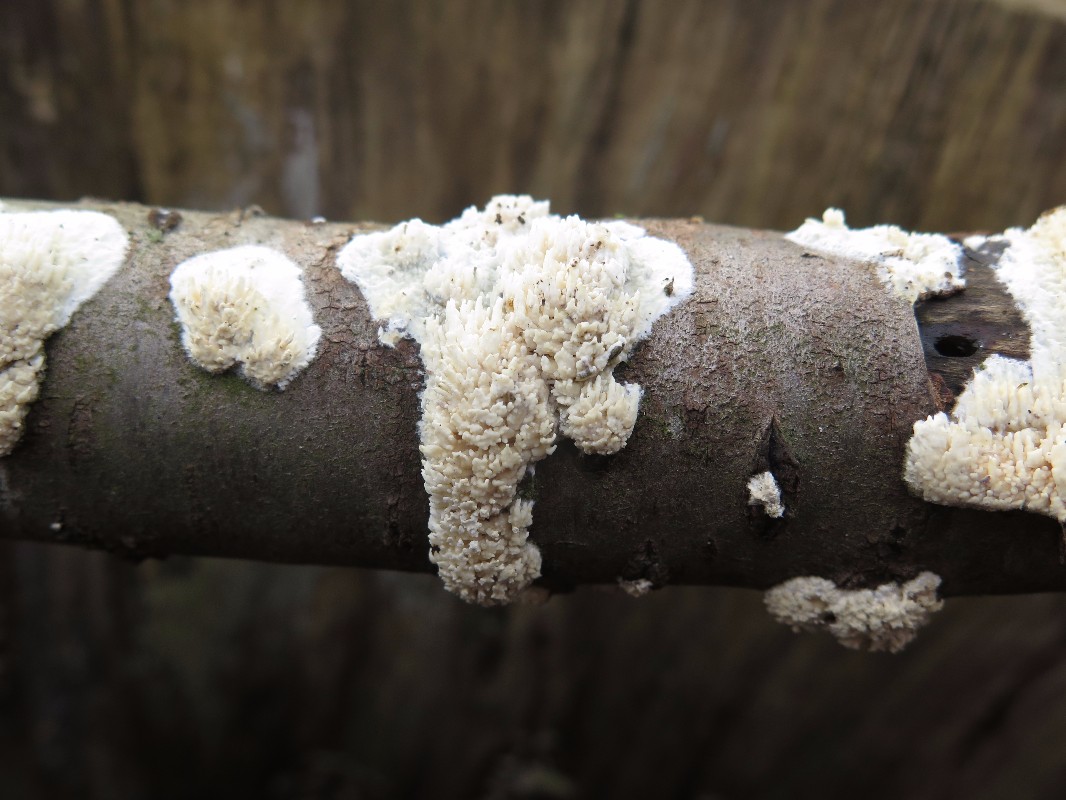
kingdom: Fungi
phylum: Basidiomycota
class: Agaricomycetes
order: Hymenochaetales
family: Schizoporaceae
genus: Xylodon
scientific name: Xylodon radula
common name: grovtandet kalkskind
